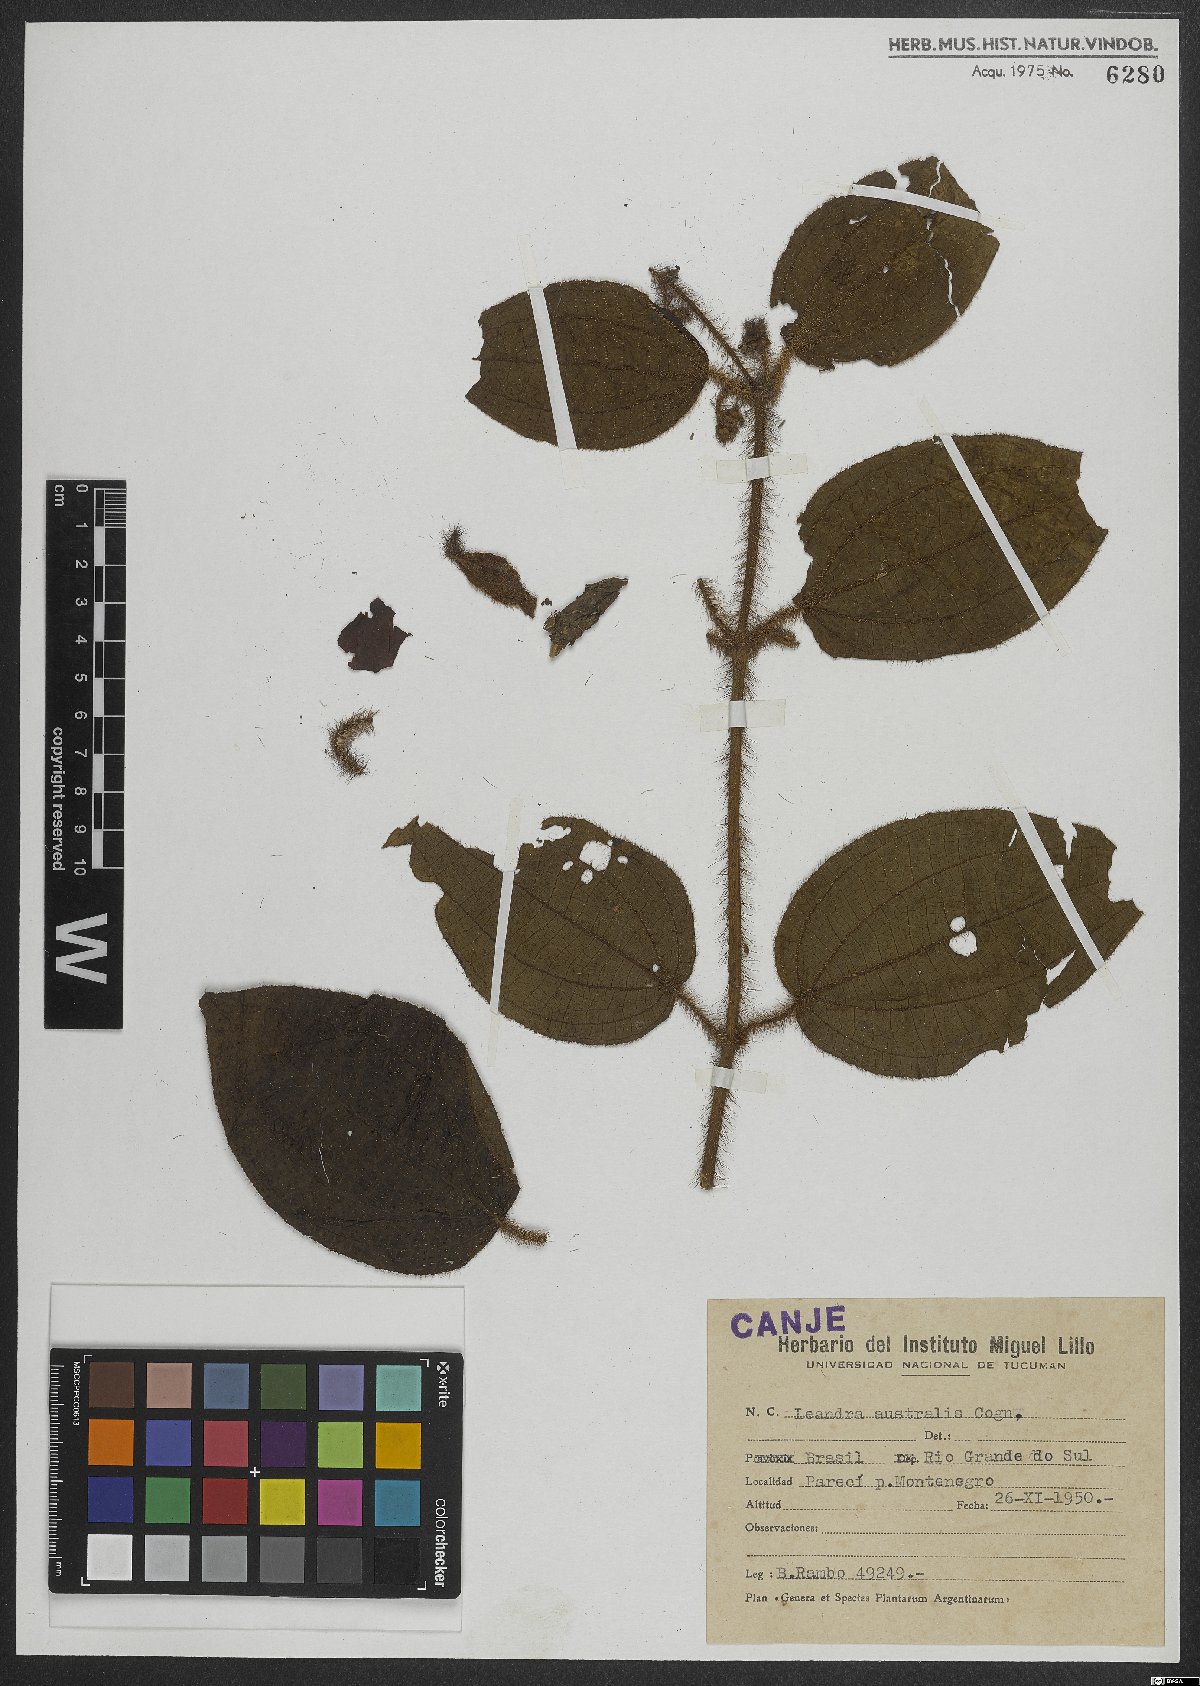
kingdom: Plantae
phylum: Tracheophyta
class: Magnoliopsida
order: Myrtales
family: Melastomataceae
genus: Miconia
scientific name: Miconia australis
